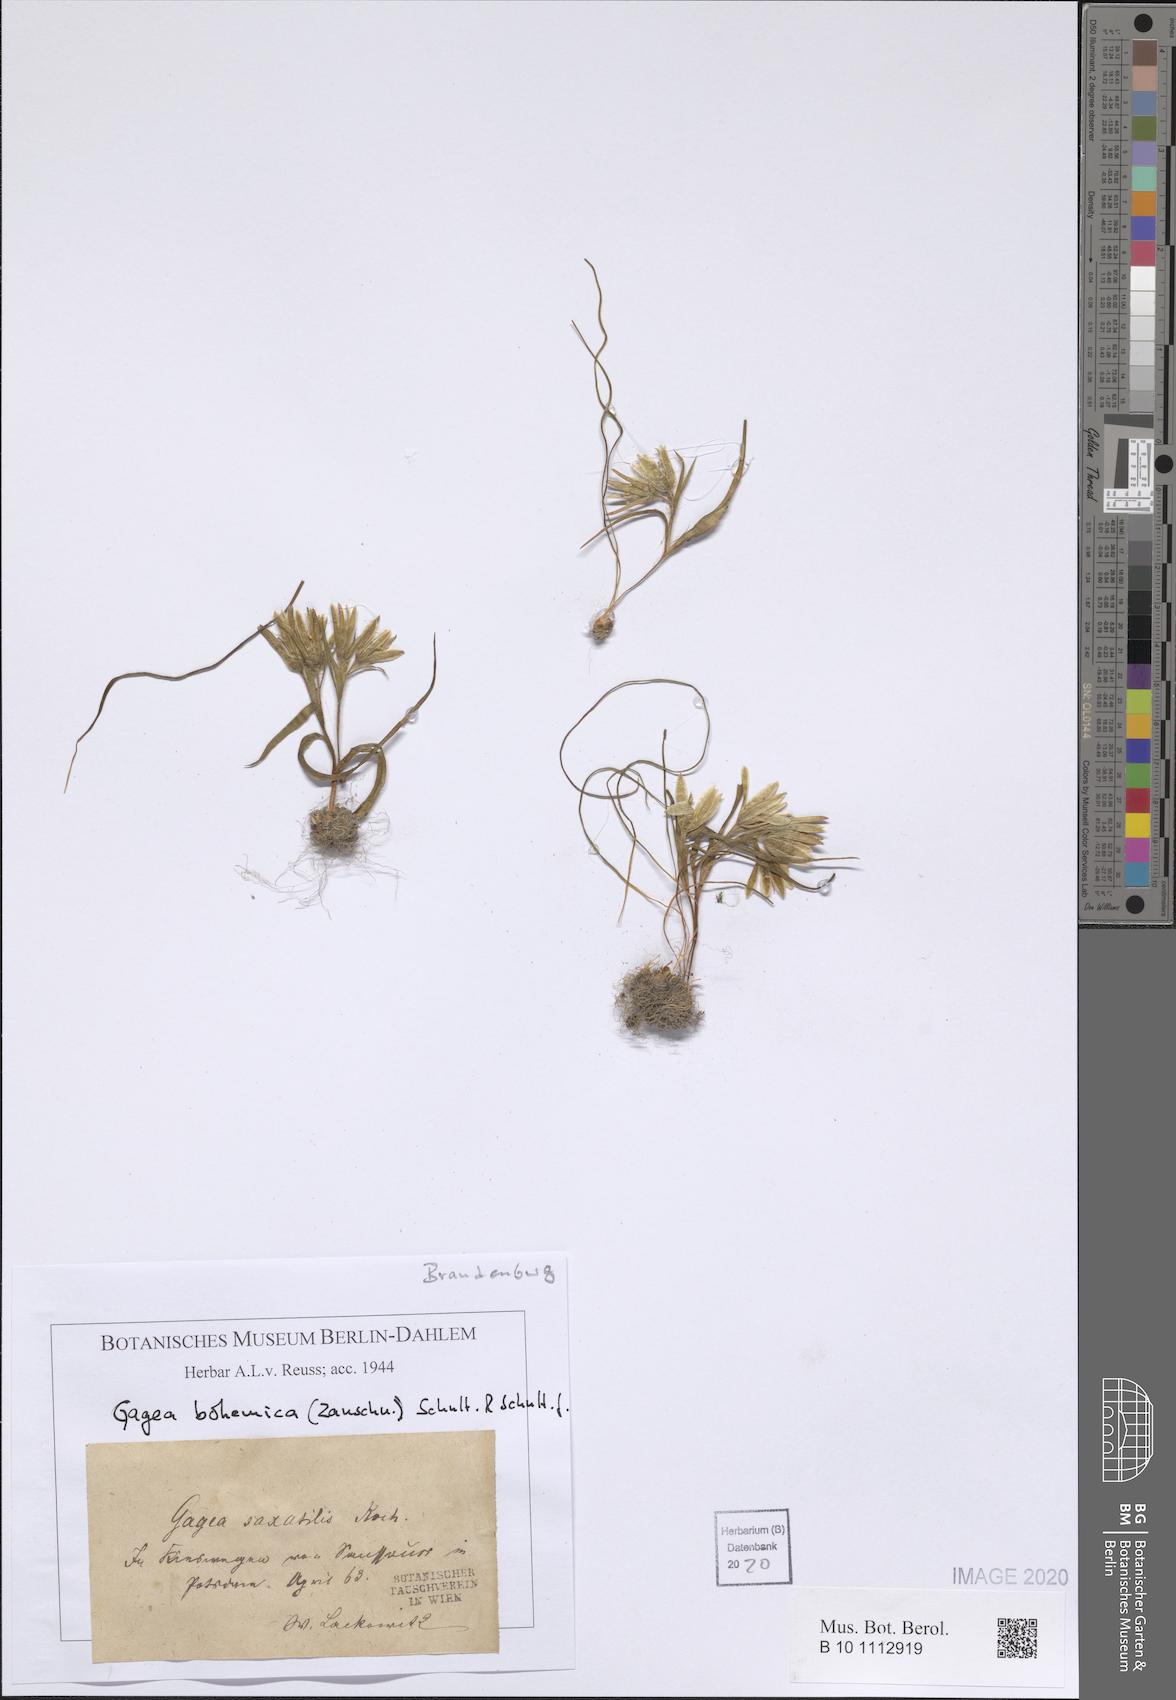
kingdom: Plantae
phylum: Tracheophyta
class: Liliopsida
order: Liliales
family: Liliaceae
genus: Gagea
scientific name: Gagea bohemica
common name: Early star-of-bethlehem
